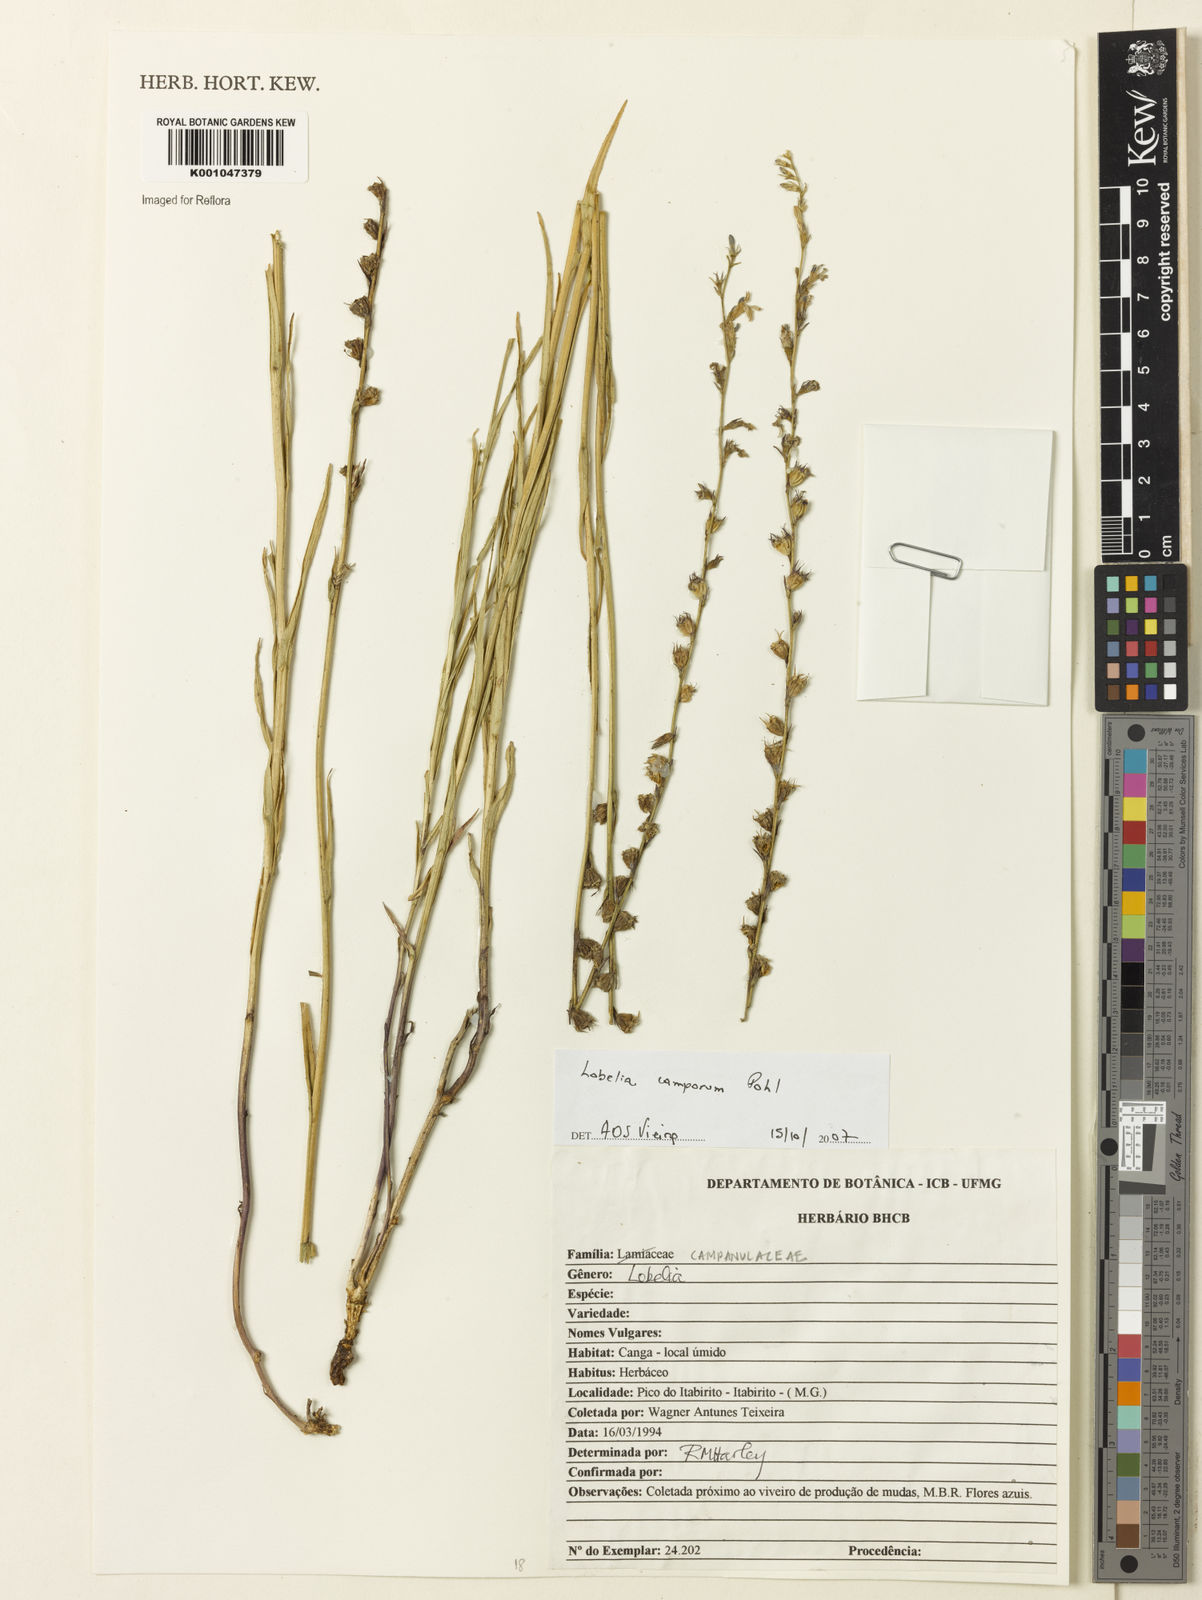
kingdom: Plantae
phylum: Tracheophyta
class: Magnoliopsida
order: Asterales
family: Campanulaceae
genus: Lobelia
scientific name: Lobelia camporum
